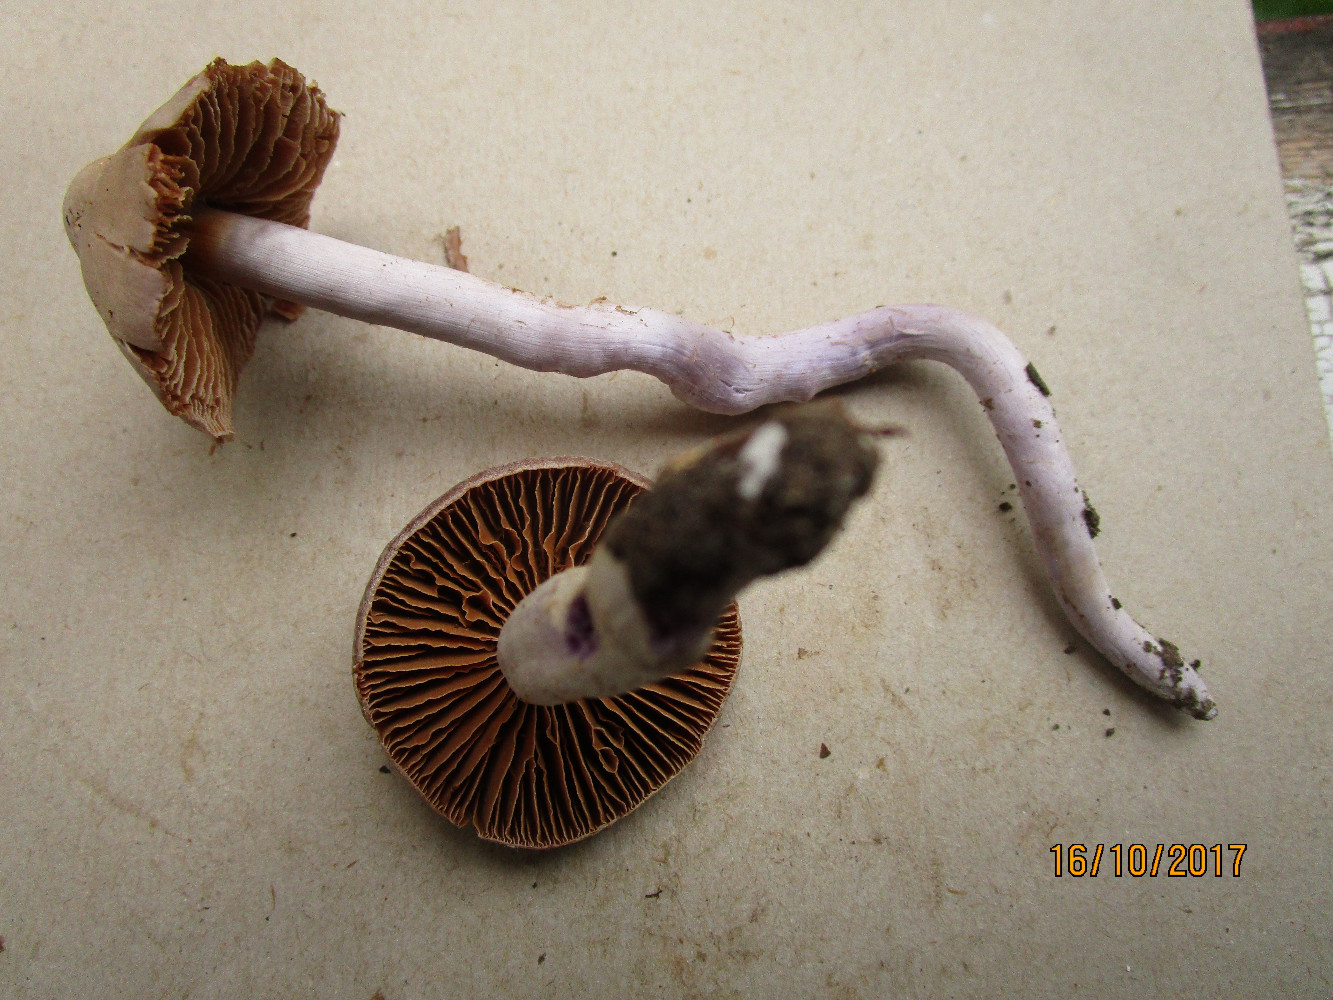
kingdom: Fungi
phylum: Basidiomycota
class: Agaricomycetes
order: Agaricales
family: Cortinariaceae
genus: Cortinarius
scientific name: Cortinarius cagei
